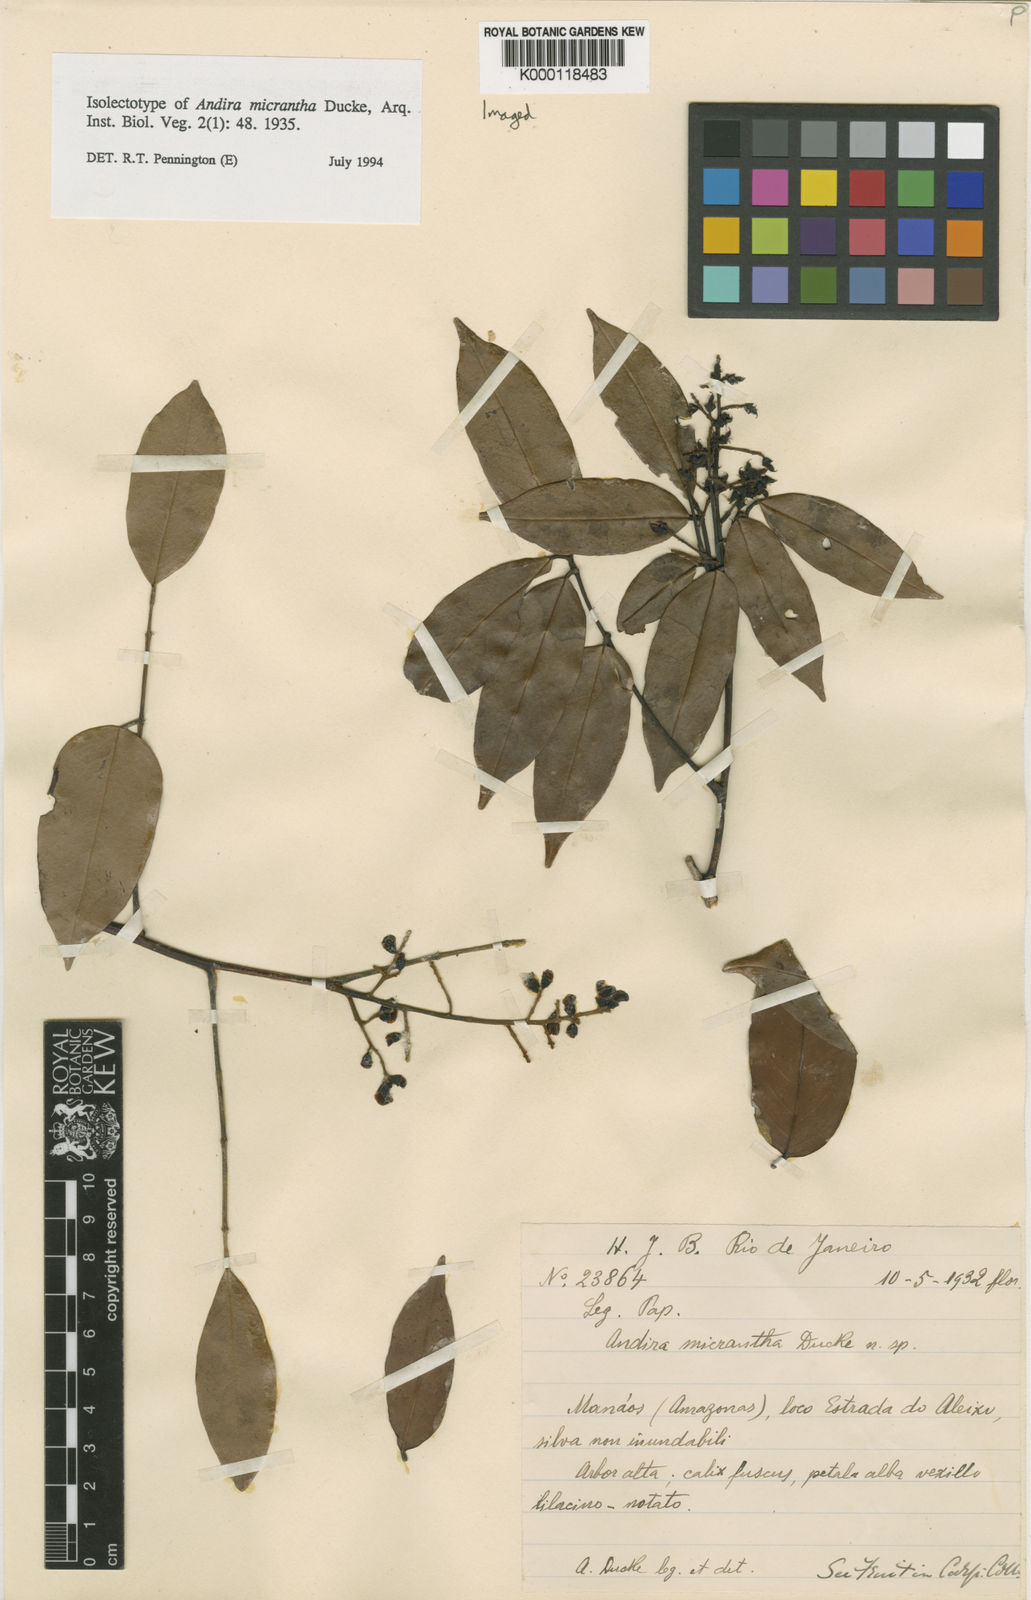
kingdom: Plantae
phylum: Tracheophyta
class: Magnoliopsida
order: Fabales
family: Fabaceae
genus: Andira
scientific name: Andira micrantha
